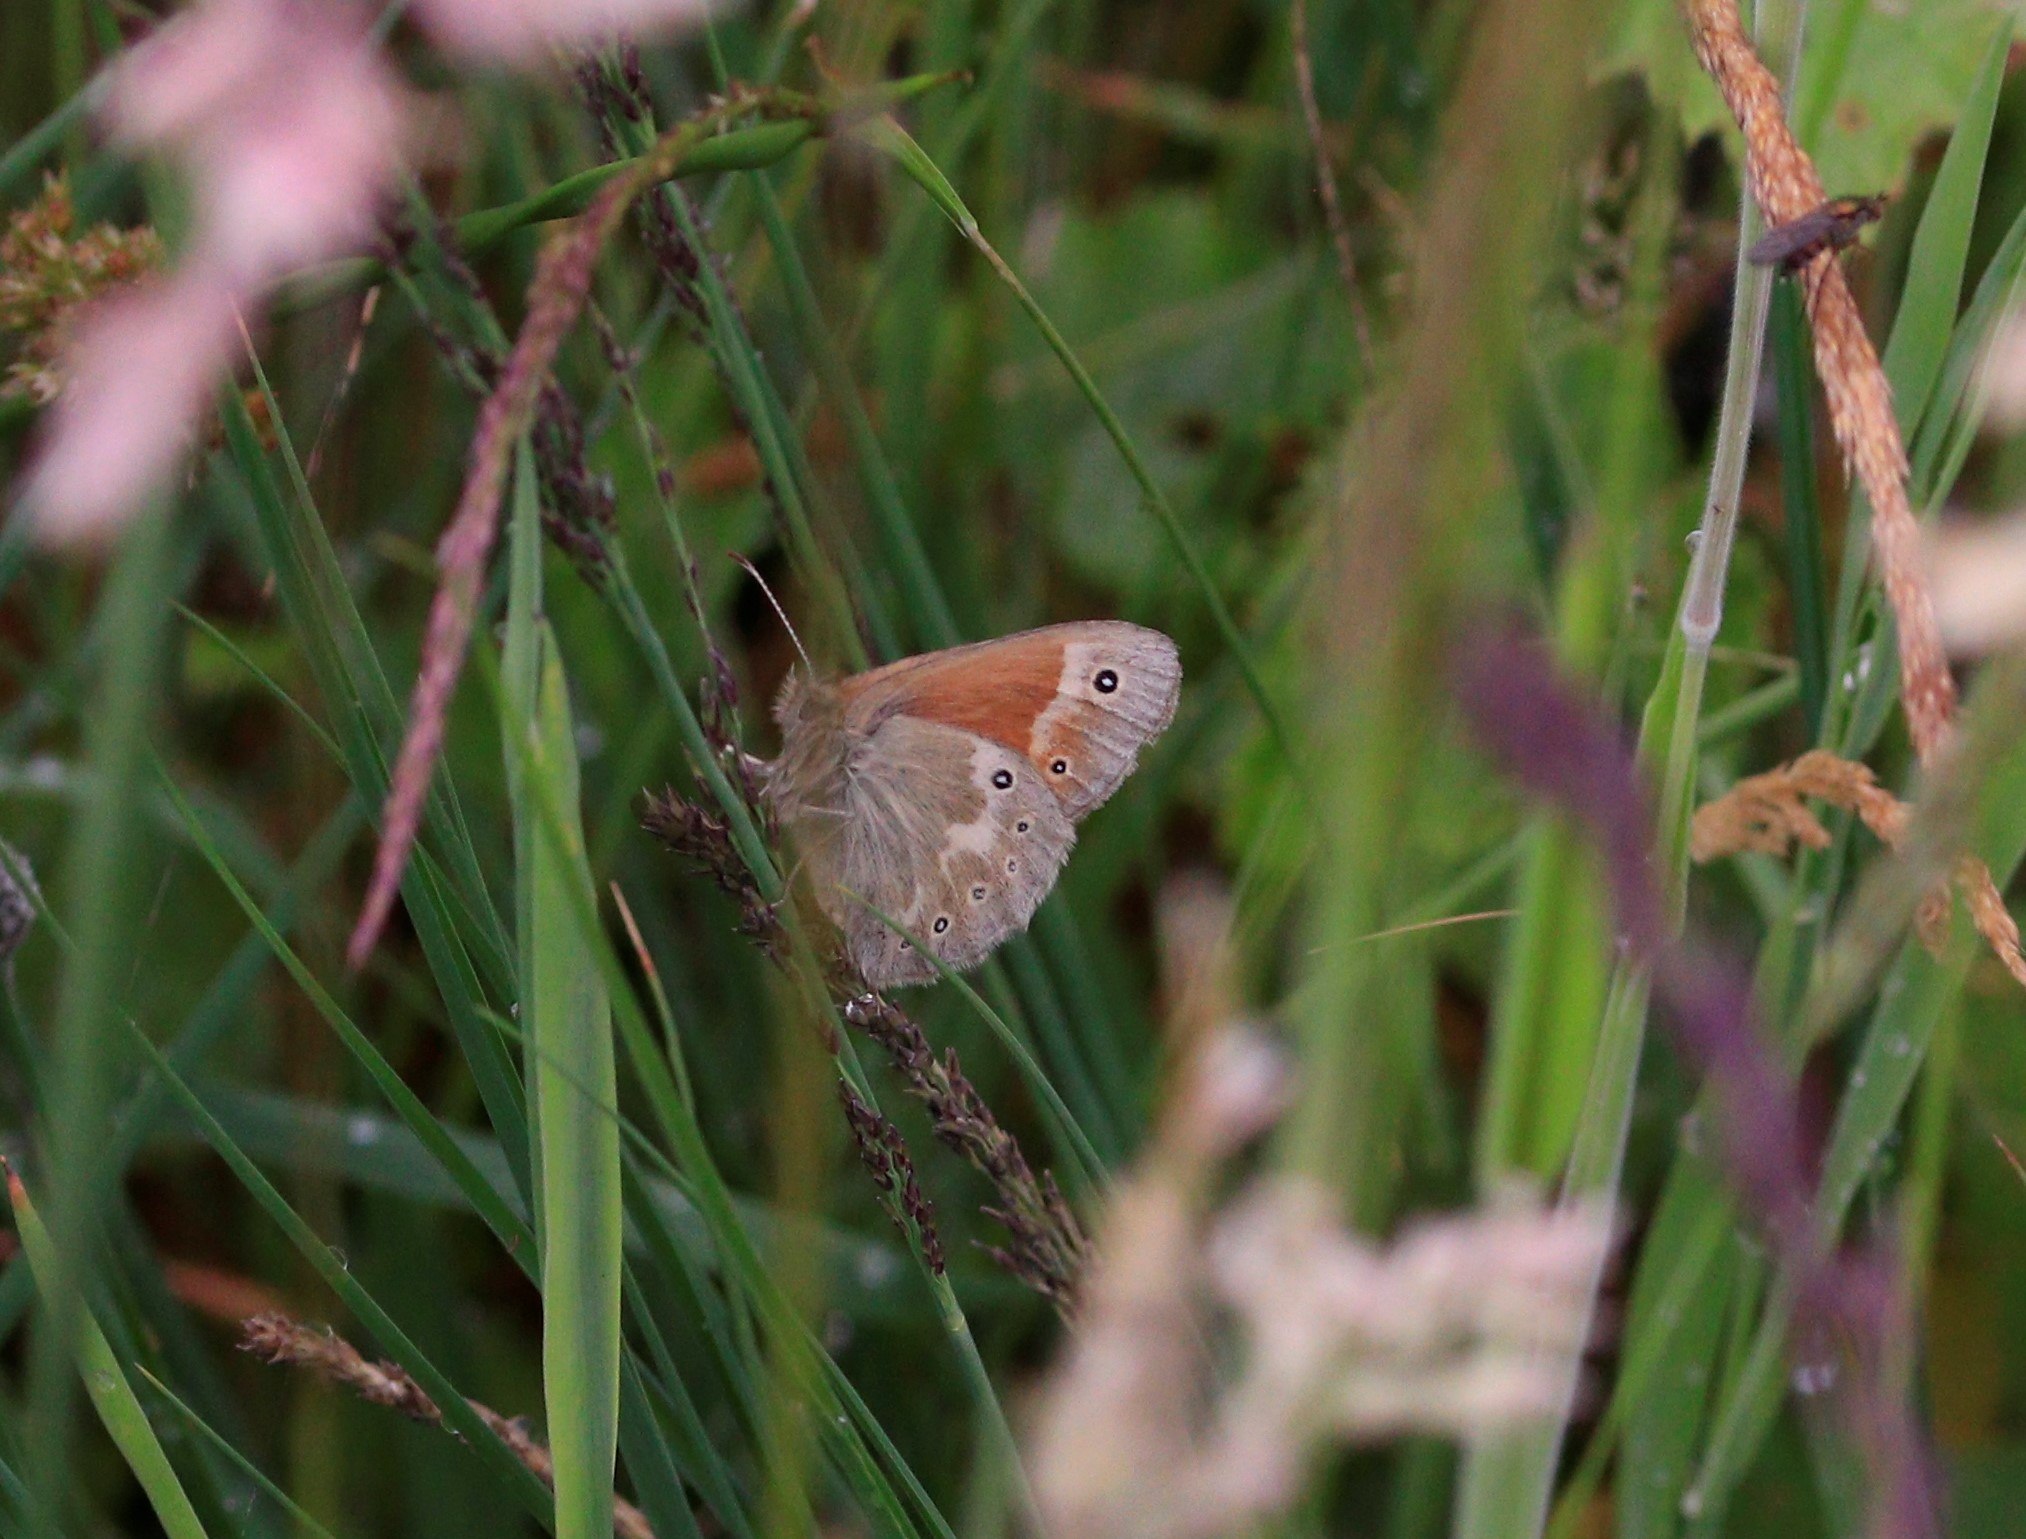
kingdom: Animalia
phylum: Arthropoda
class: Insecta
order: Lepidoptera
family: Nymphalidae
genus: Coenonympha
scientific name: Coenonympha tullia
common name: Moserandøje
